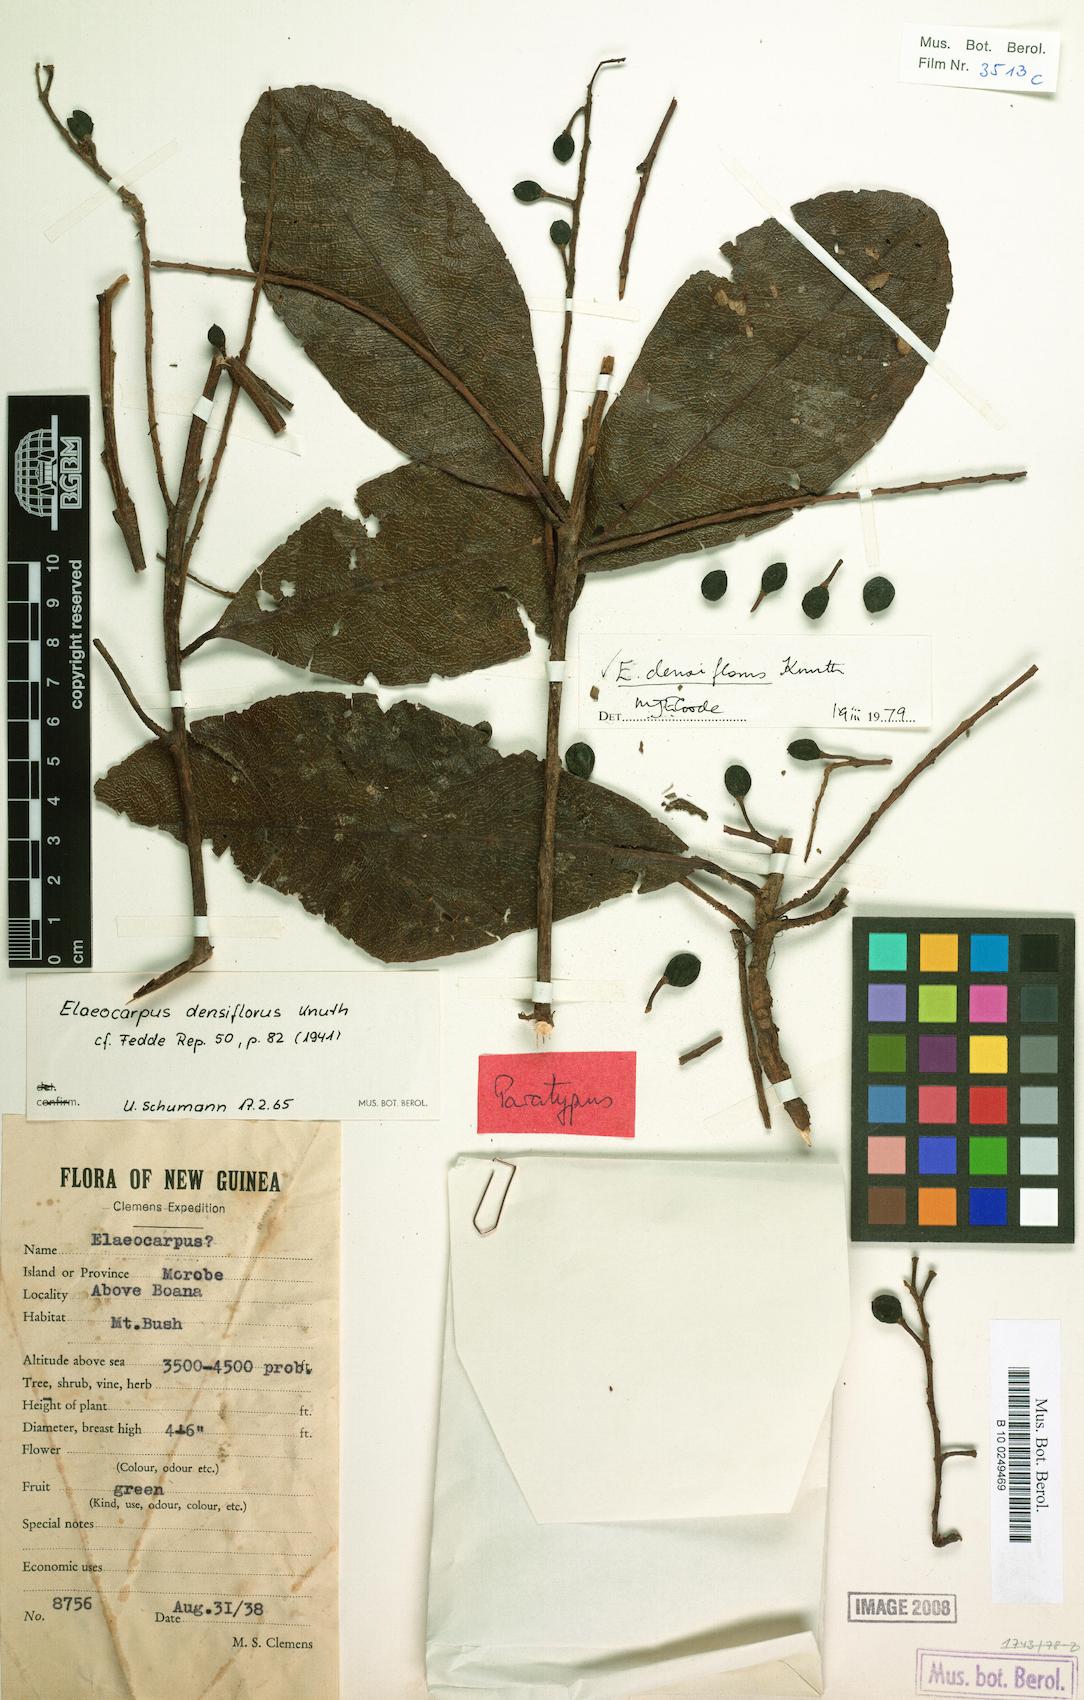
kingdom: Plantae
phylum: Tracheophyta
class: Magnoliopsida
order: Oxalidales
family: Elaeocarpaceae
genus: Elaeocarpus
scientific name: Elaeocarpus densiflorus
